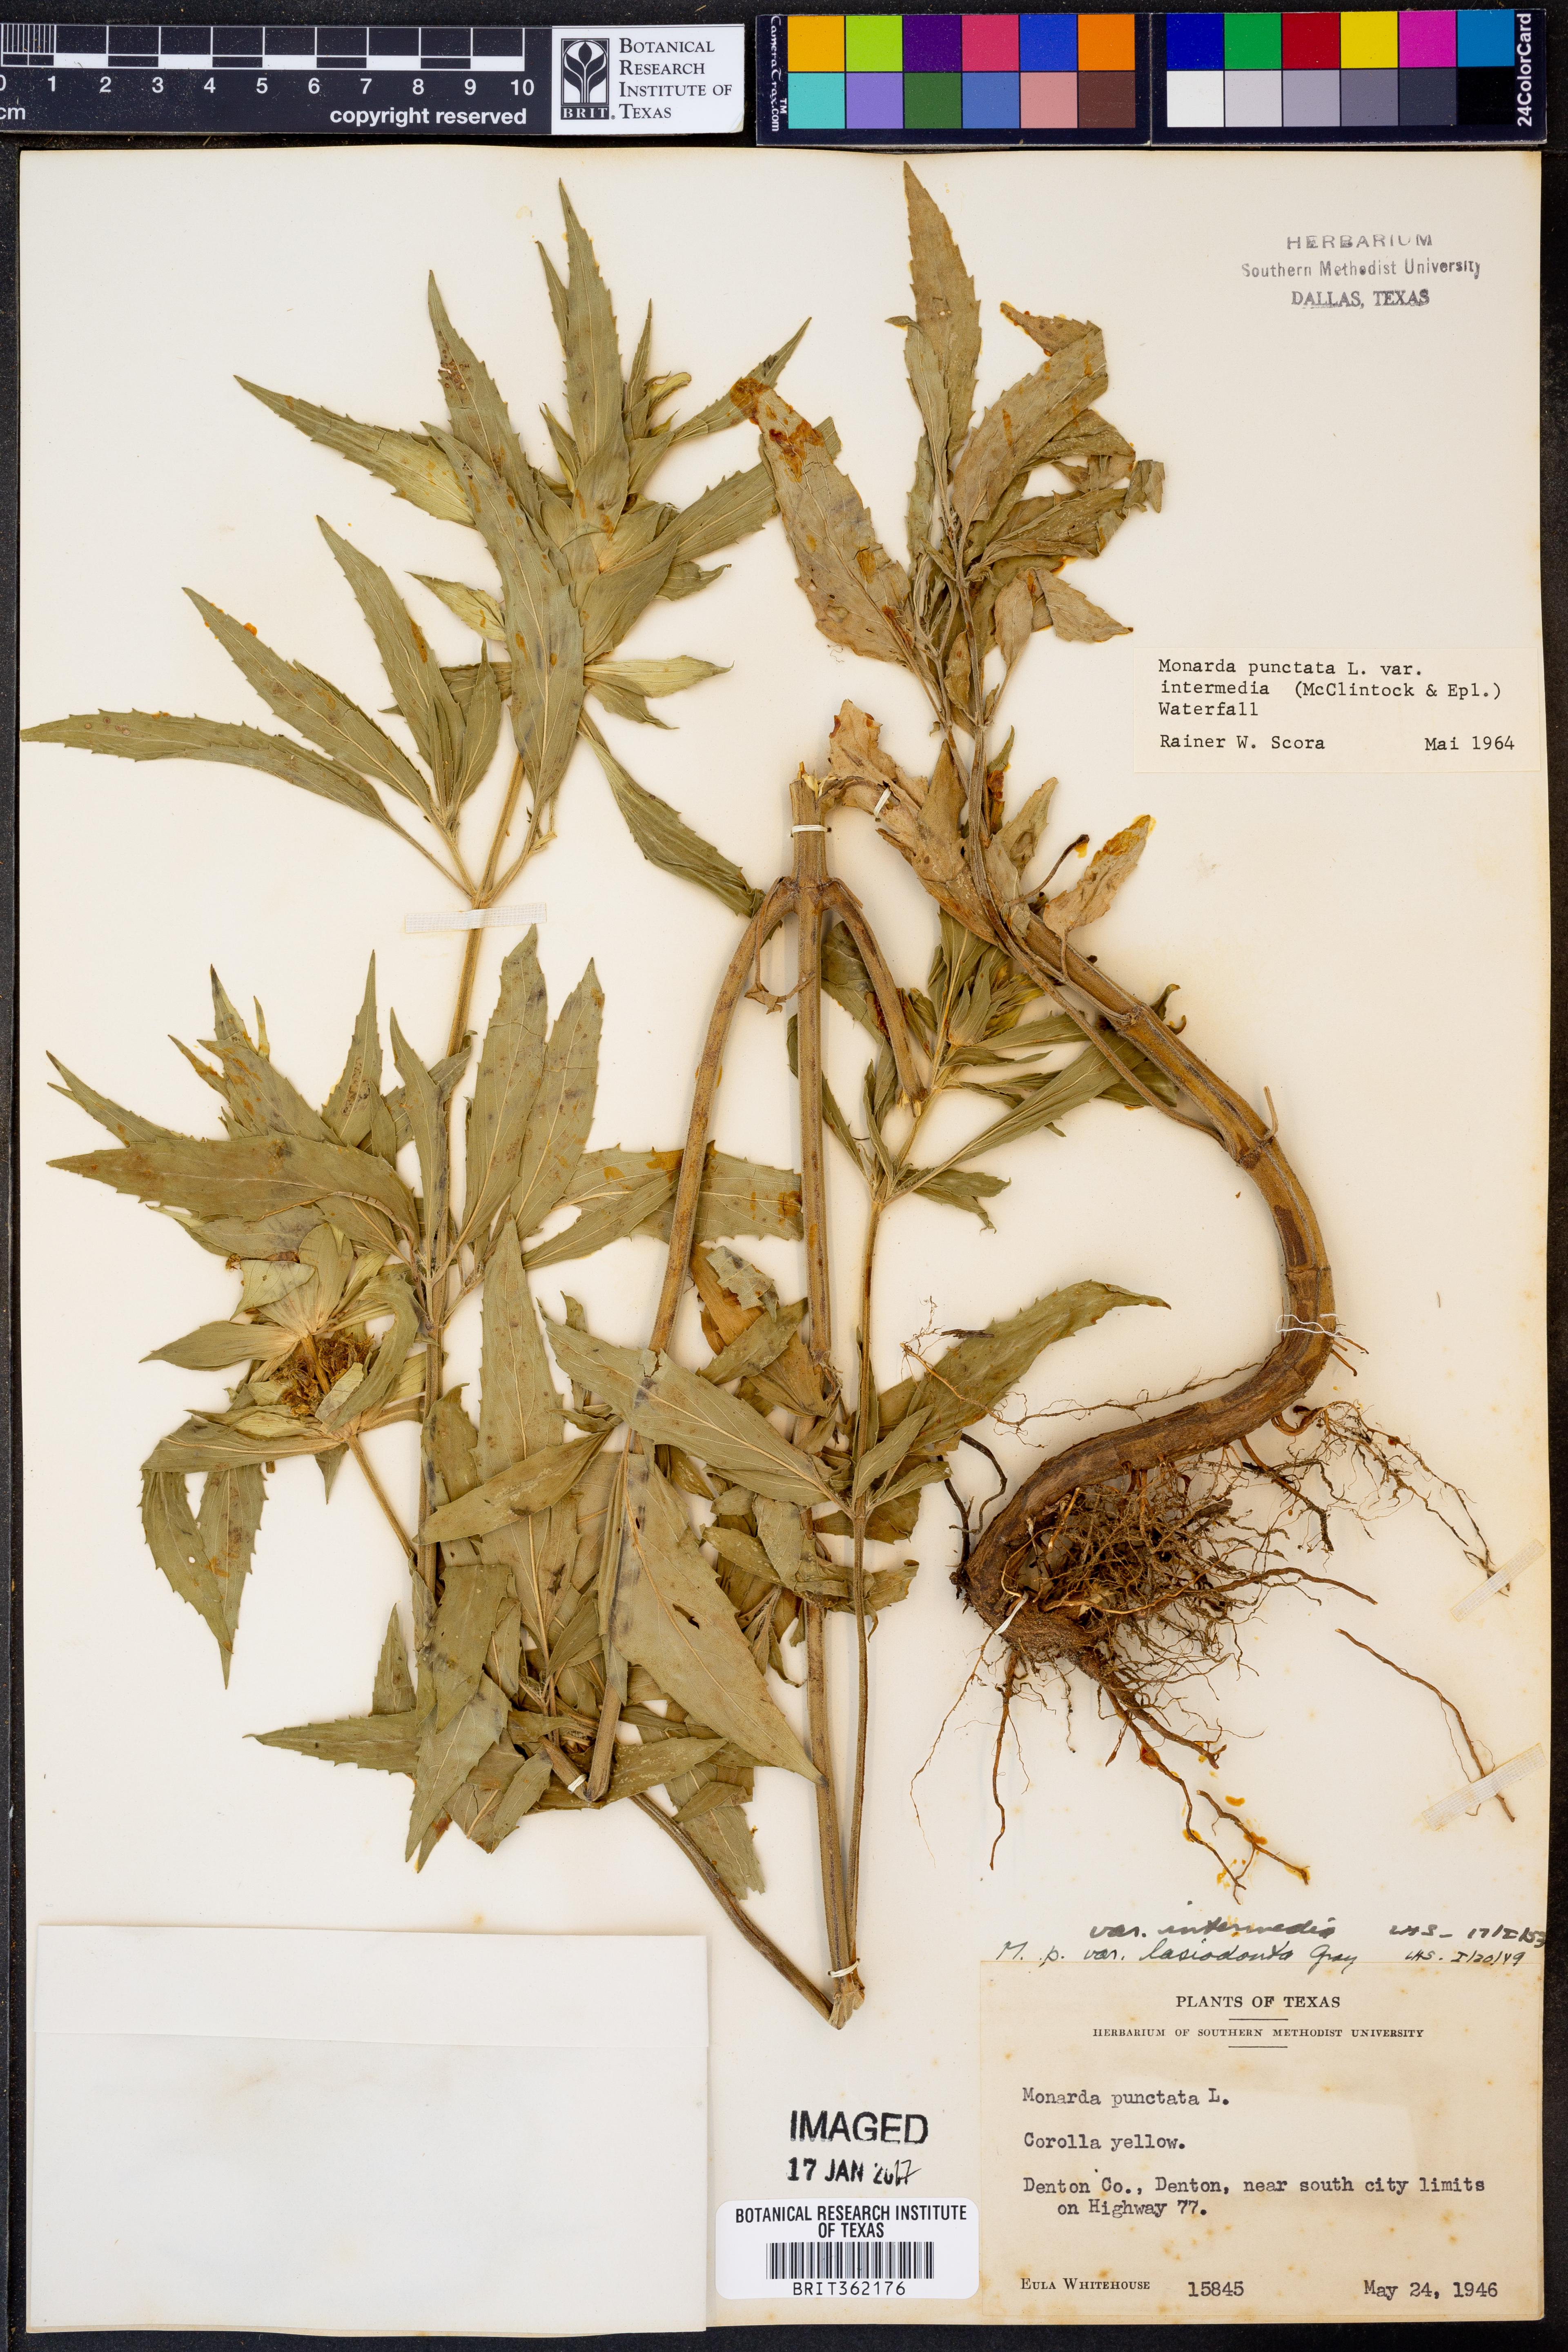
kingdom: Plantae
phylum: Tracheophyta
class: Magnoliopsida
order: Lamiales
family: Lamiaceae
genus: Monarda
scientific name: Monarda punctata
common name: Dotted monarda
